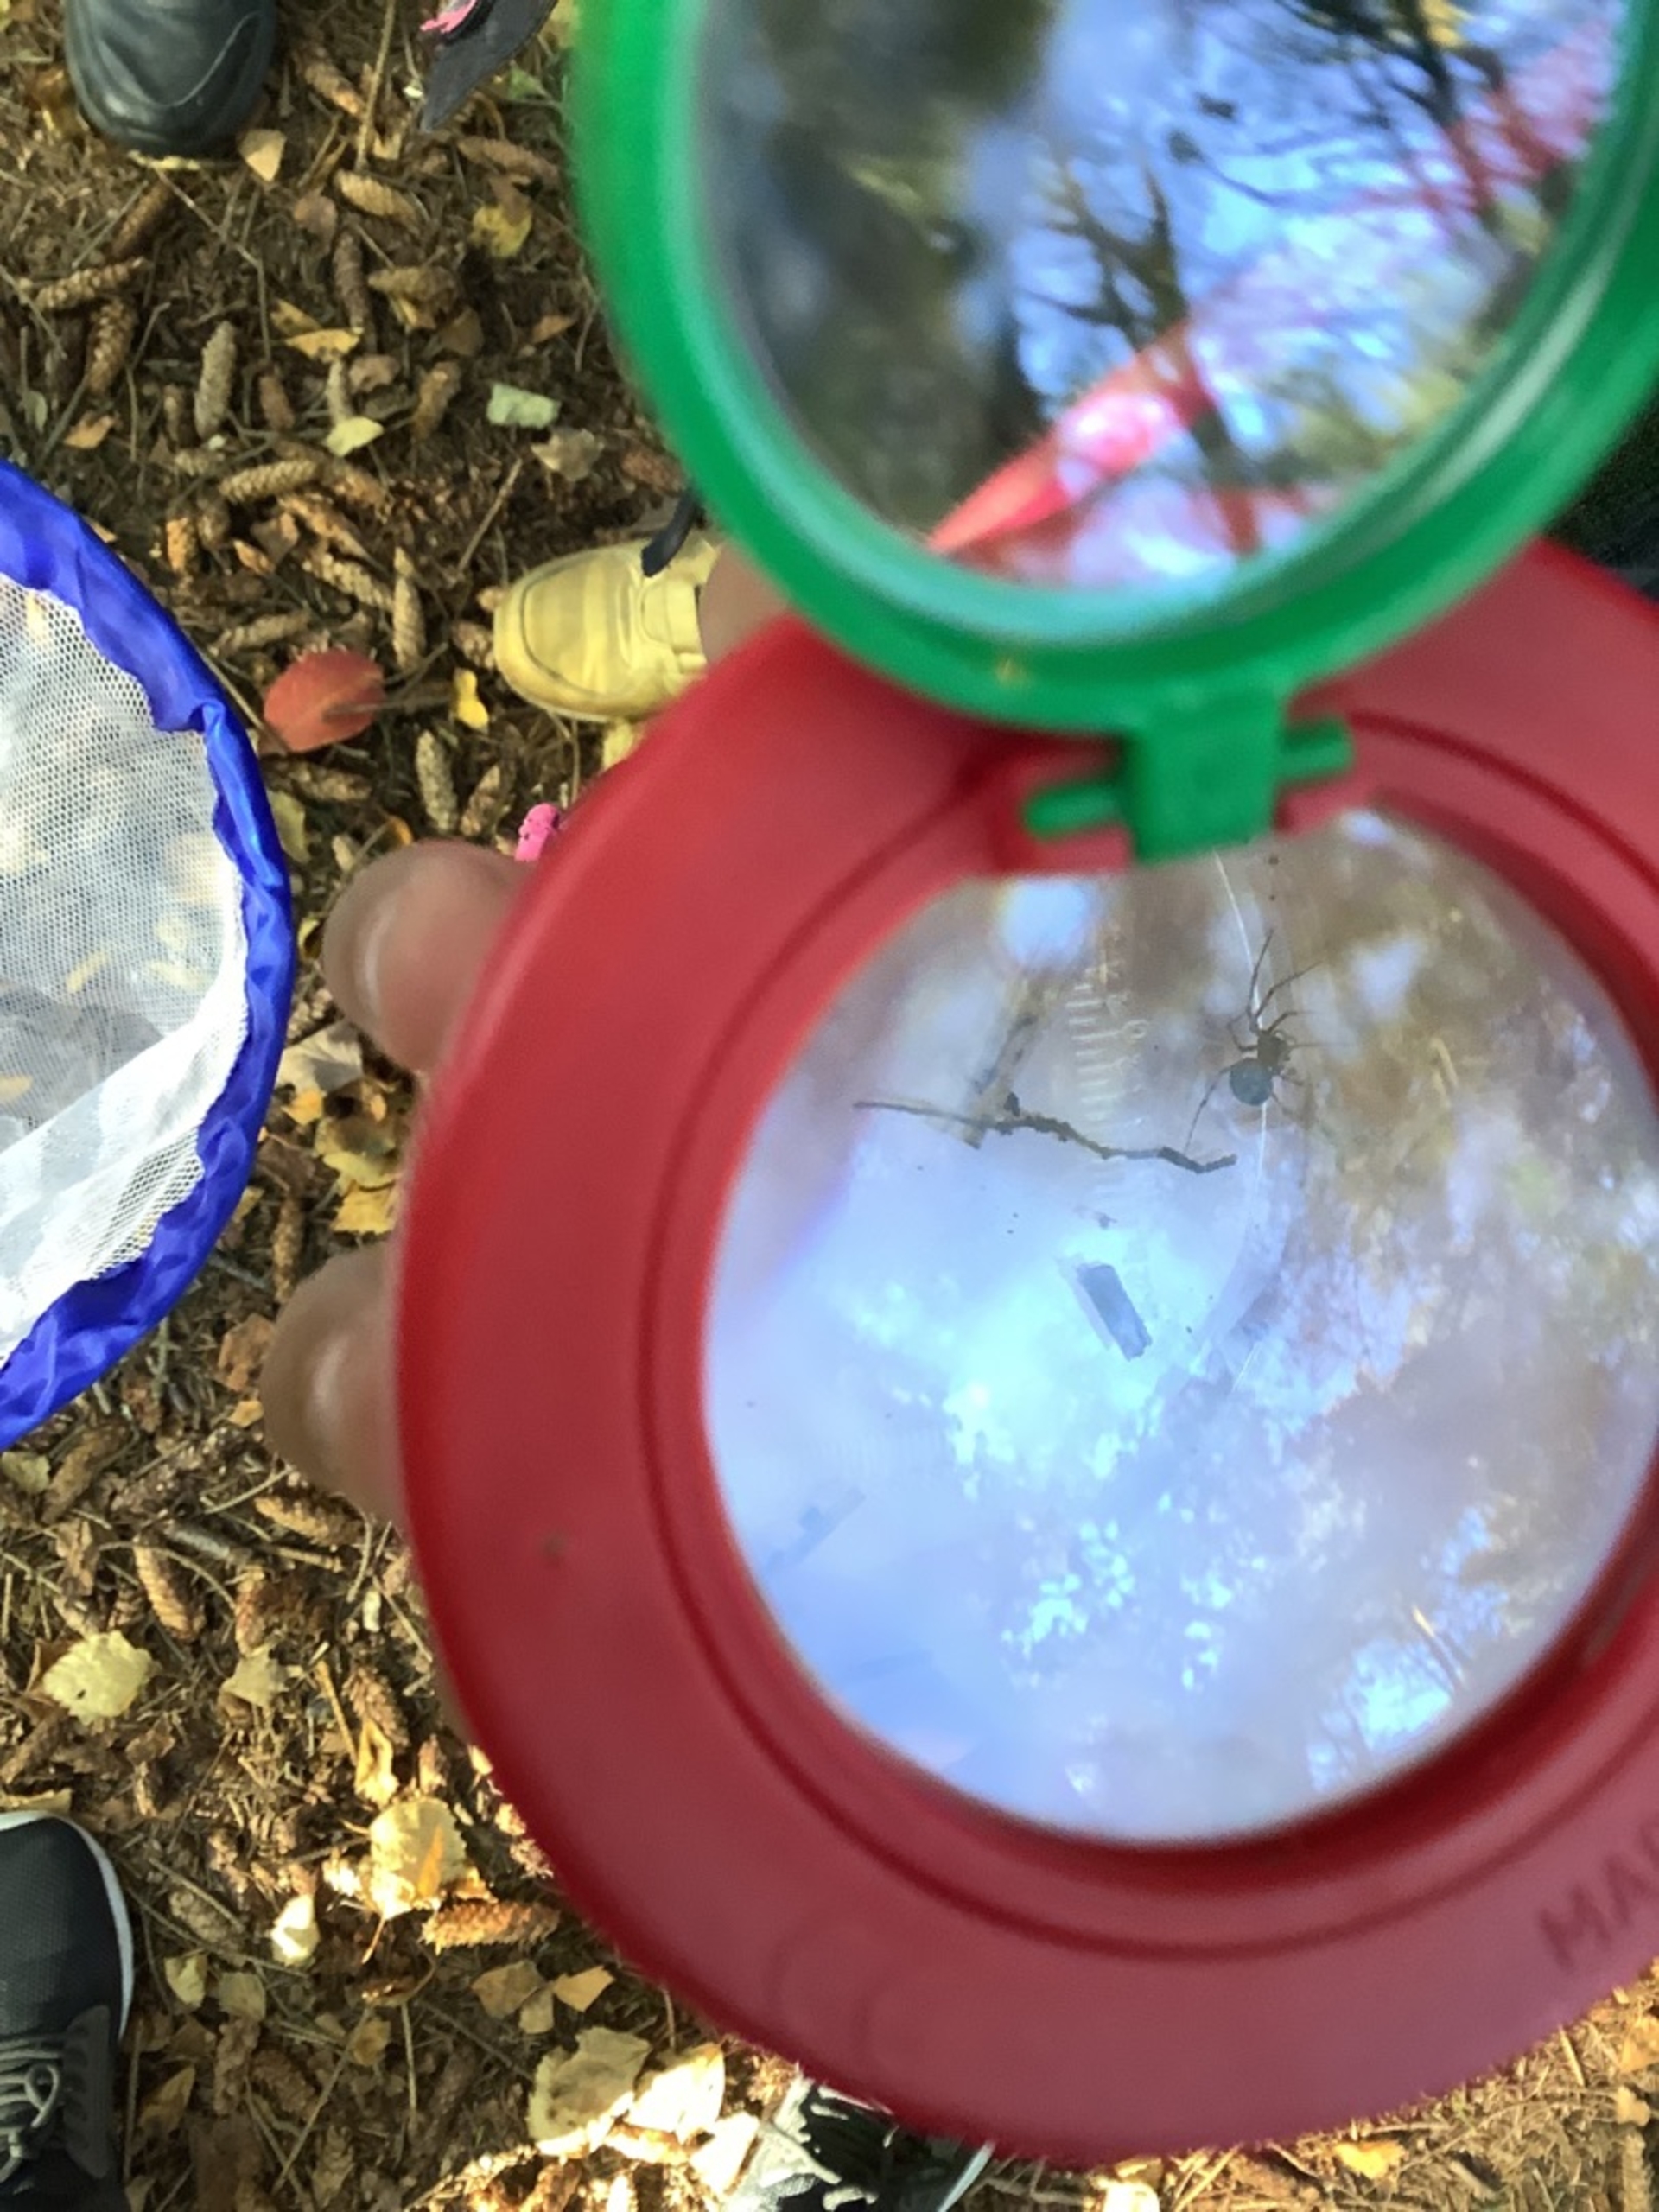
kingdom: Animalia
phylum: Arthropoda
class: Arachnida
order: Araneae
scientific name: Araneae
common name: Edderkopper
